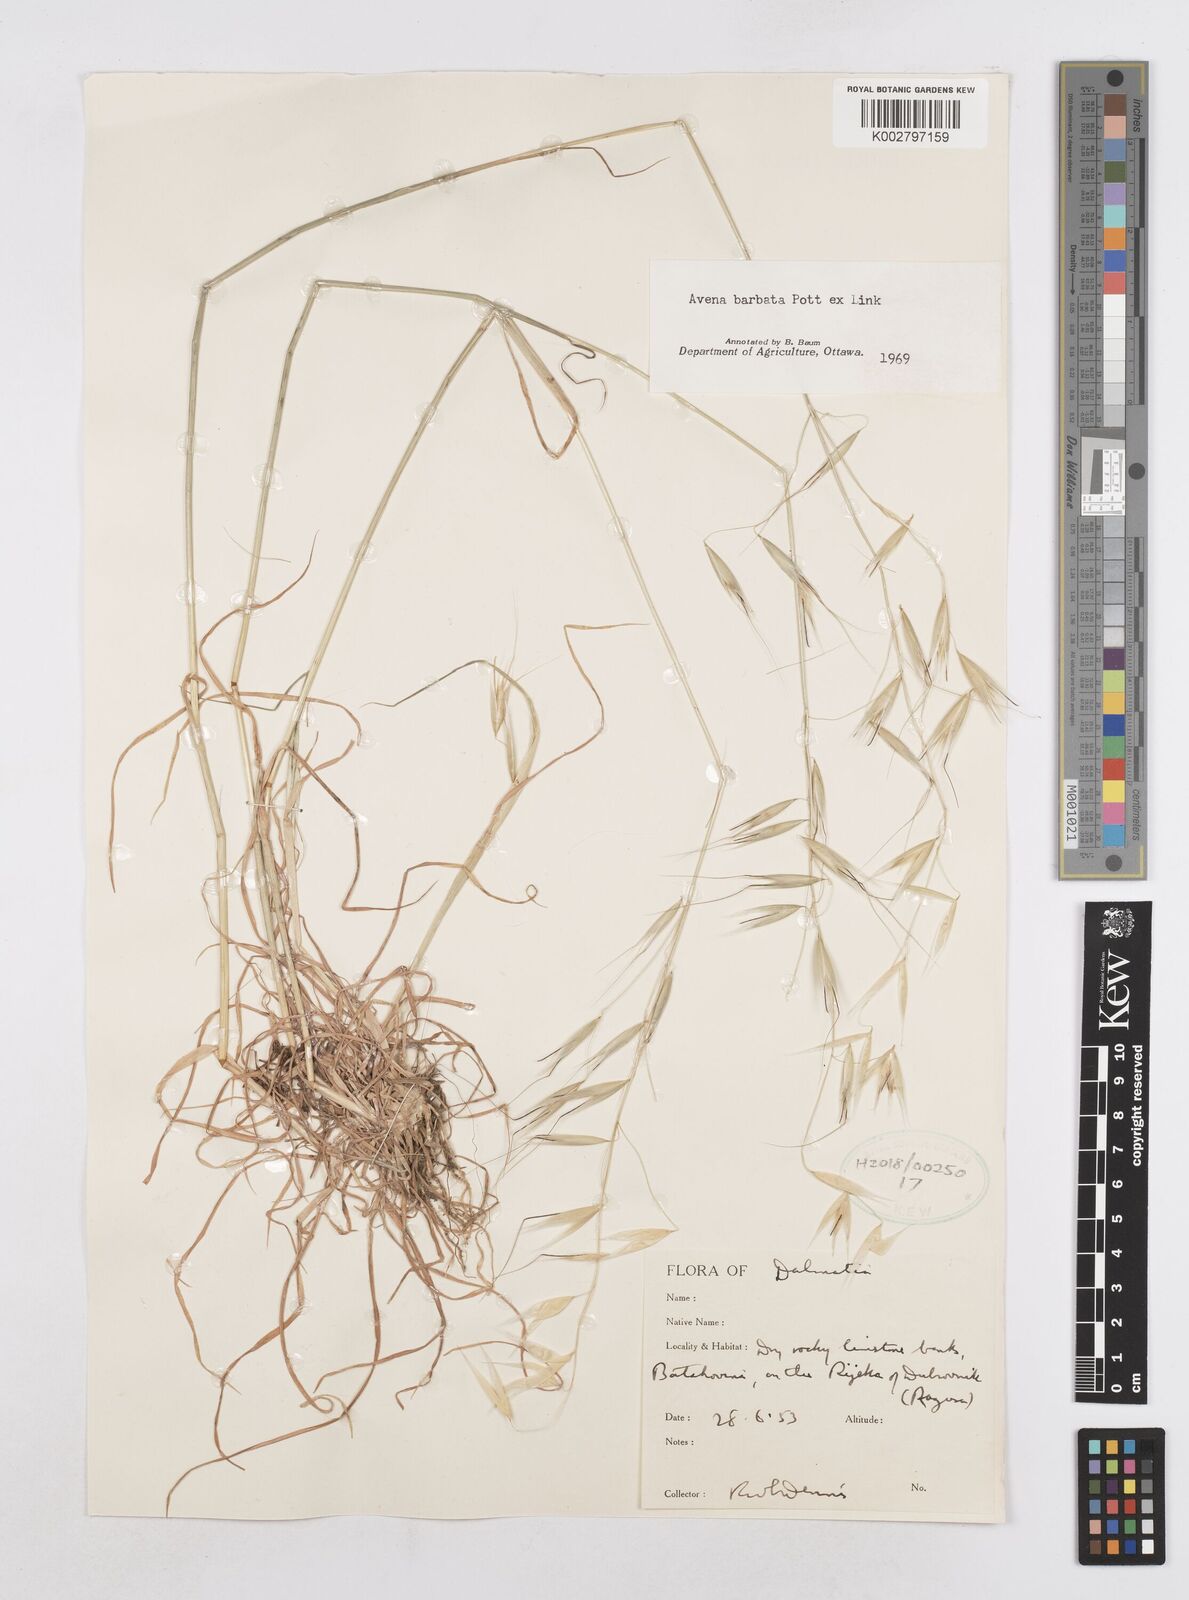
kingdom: Plantae
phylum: Tracheophyta
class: Liliopsida
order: Poales
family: Poaceae
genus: Avena
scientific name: Avena
